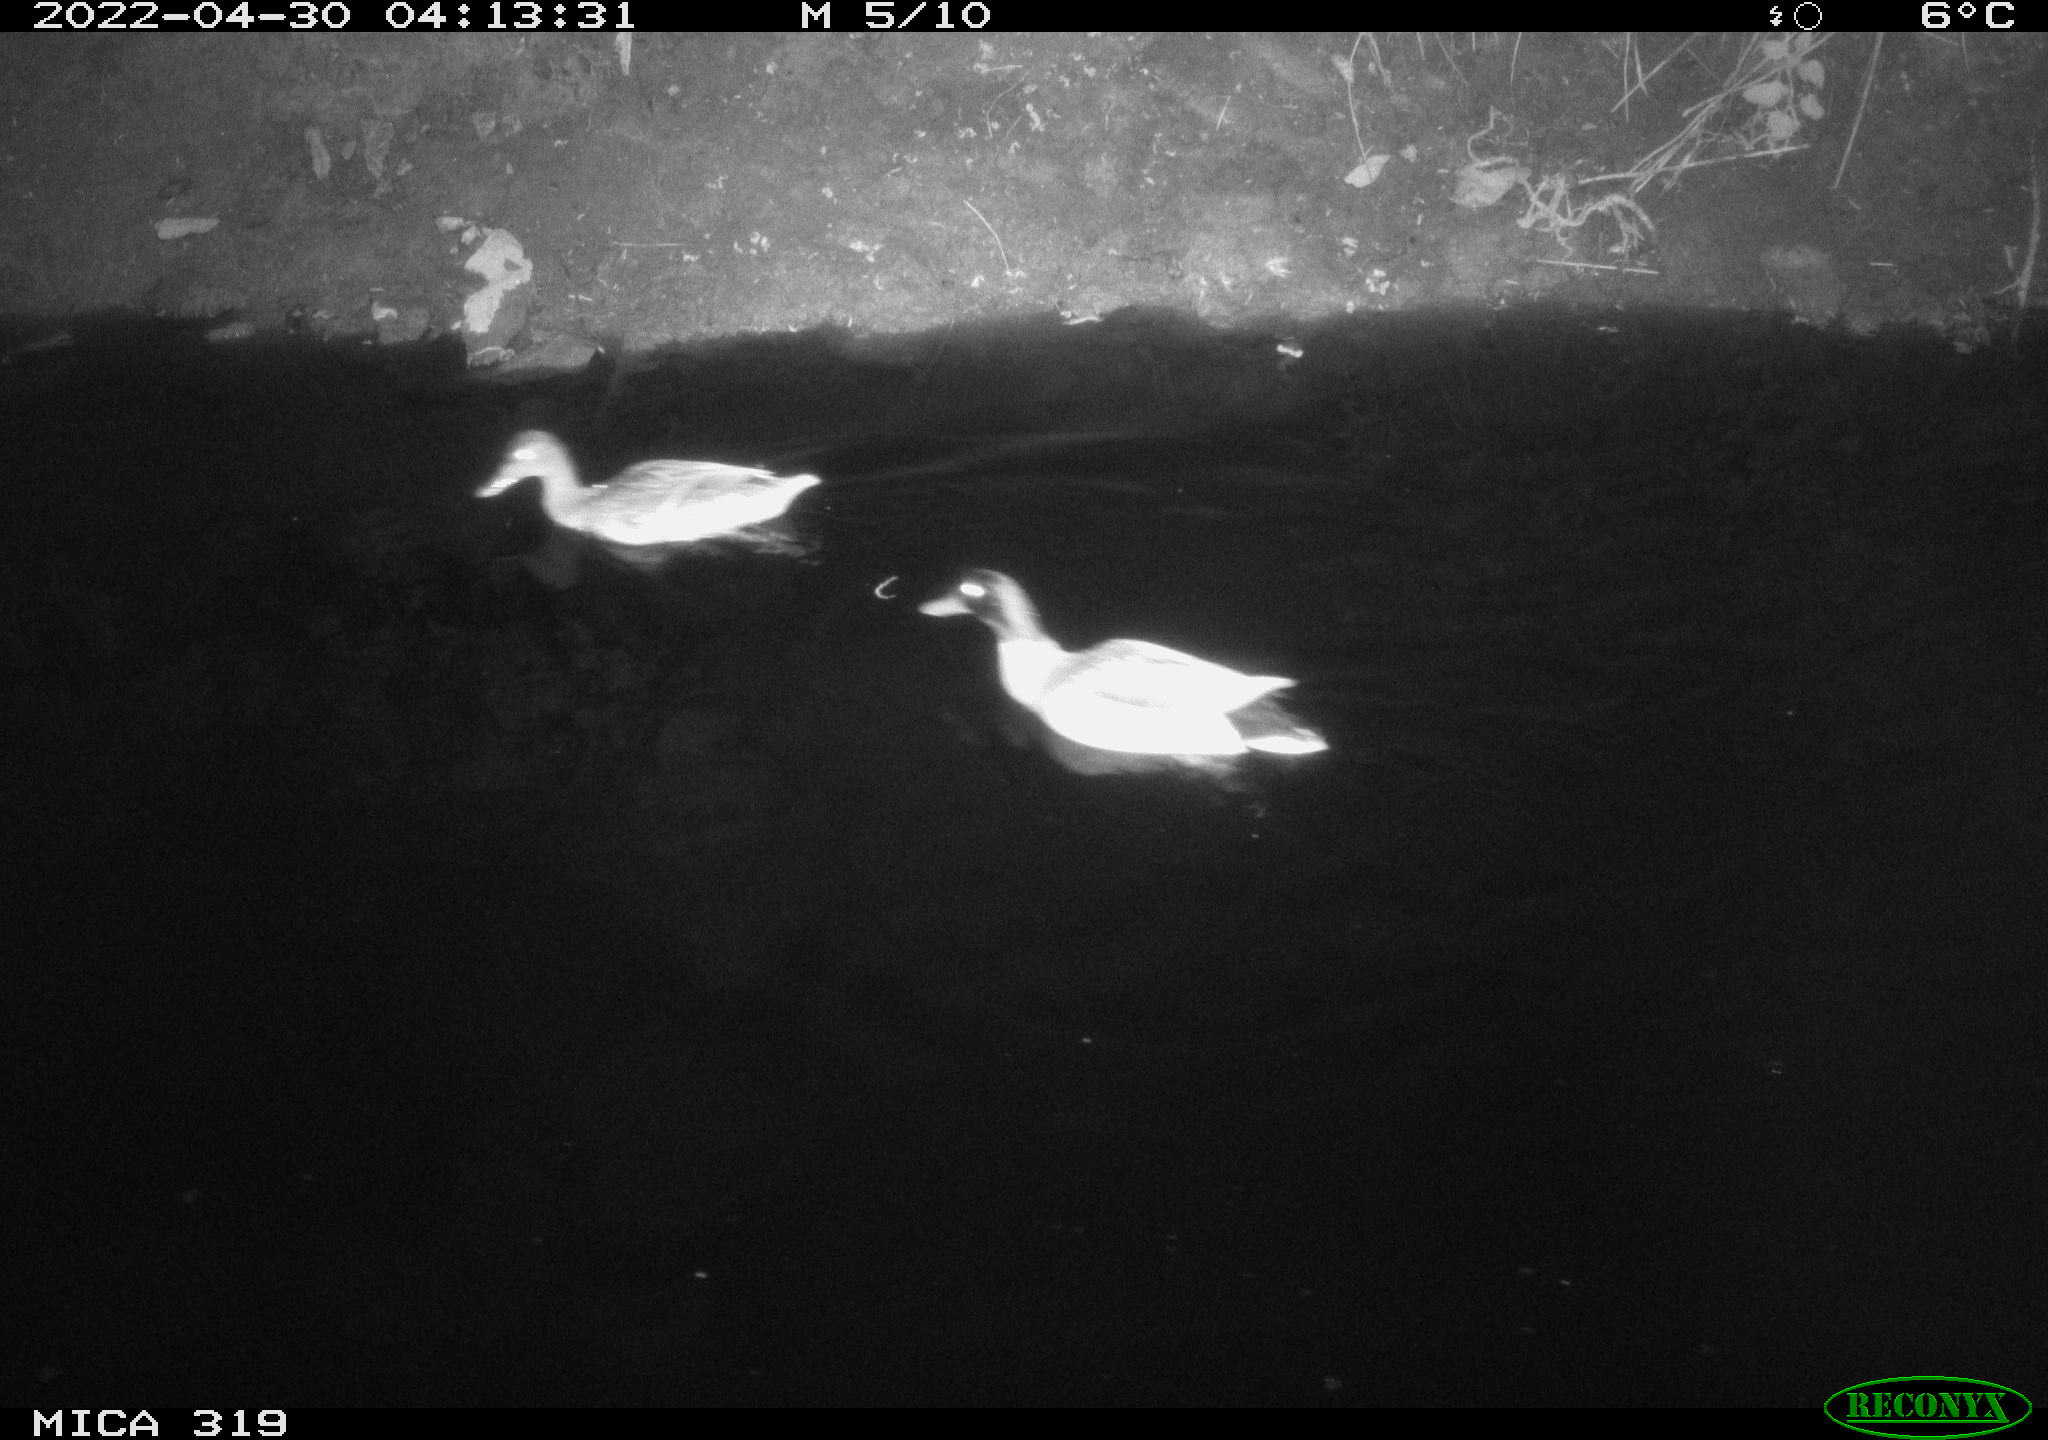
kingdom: Animalia
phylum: Chordata
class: Aves
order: Anseriformes
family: Anatidae
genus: Anas
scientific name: Anas platyrhynchos
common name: Mallard
